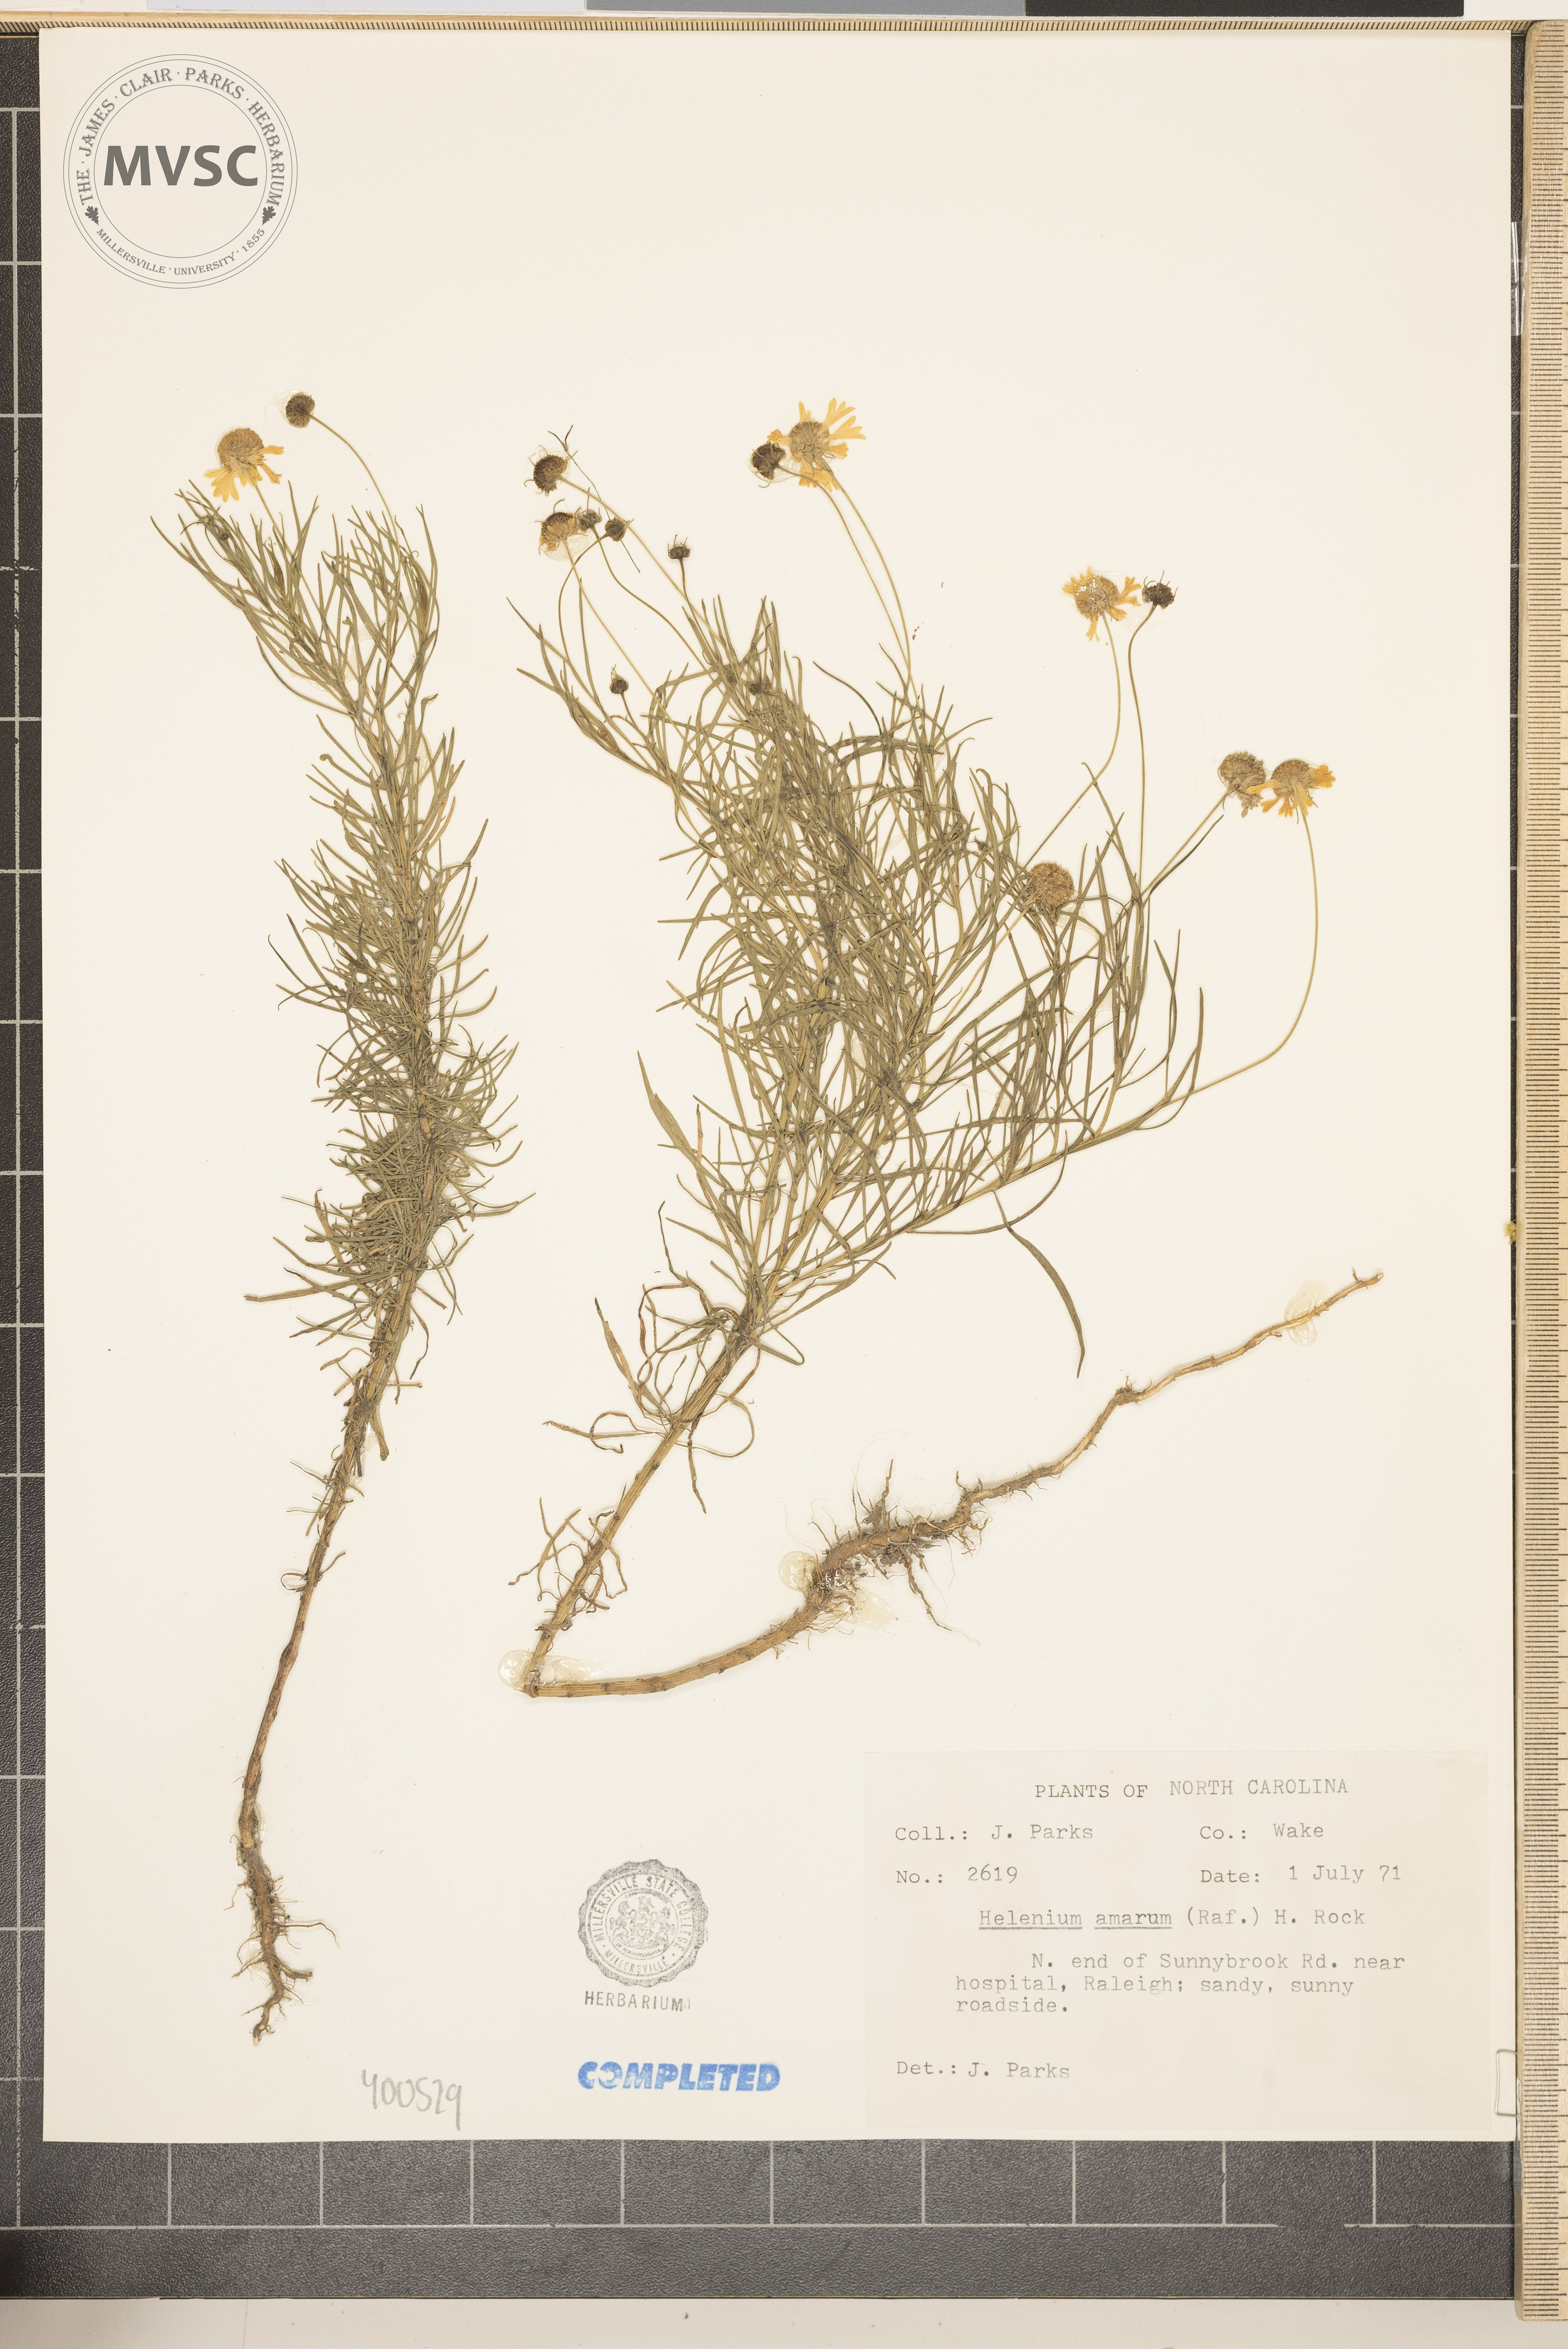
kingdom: Plantae
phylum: Tracheophyta
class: Magnoliopsida
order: Asterales
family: Asteraceae
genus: Helenium
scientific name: Helenium amarum
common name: Bitter sneezeweed
